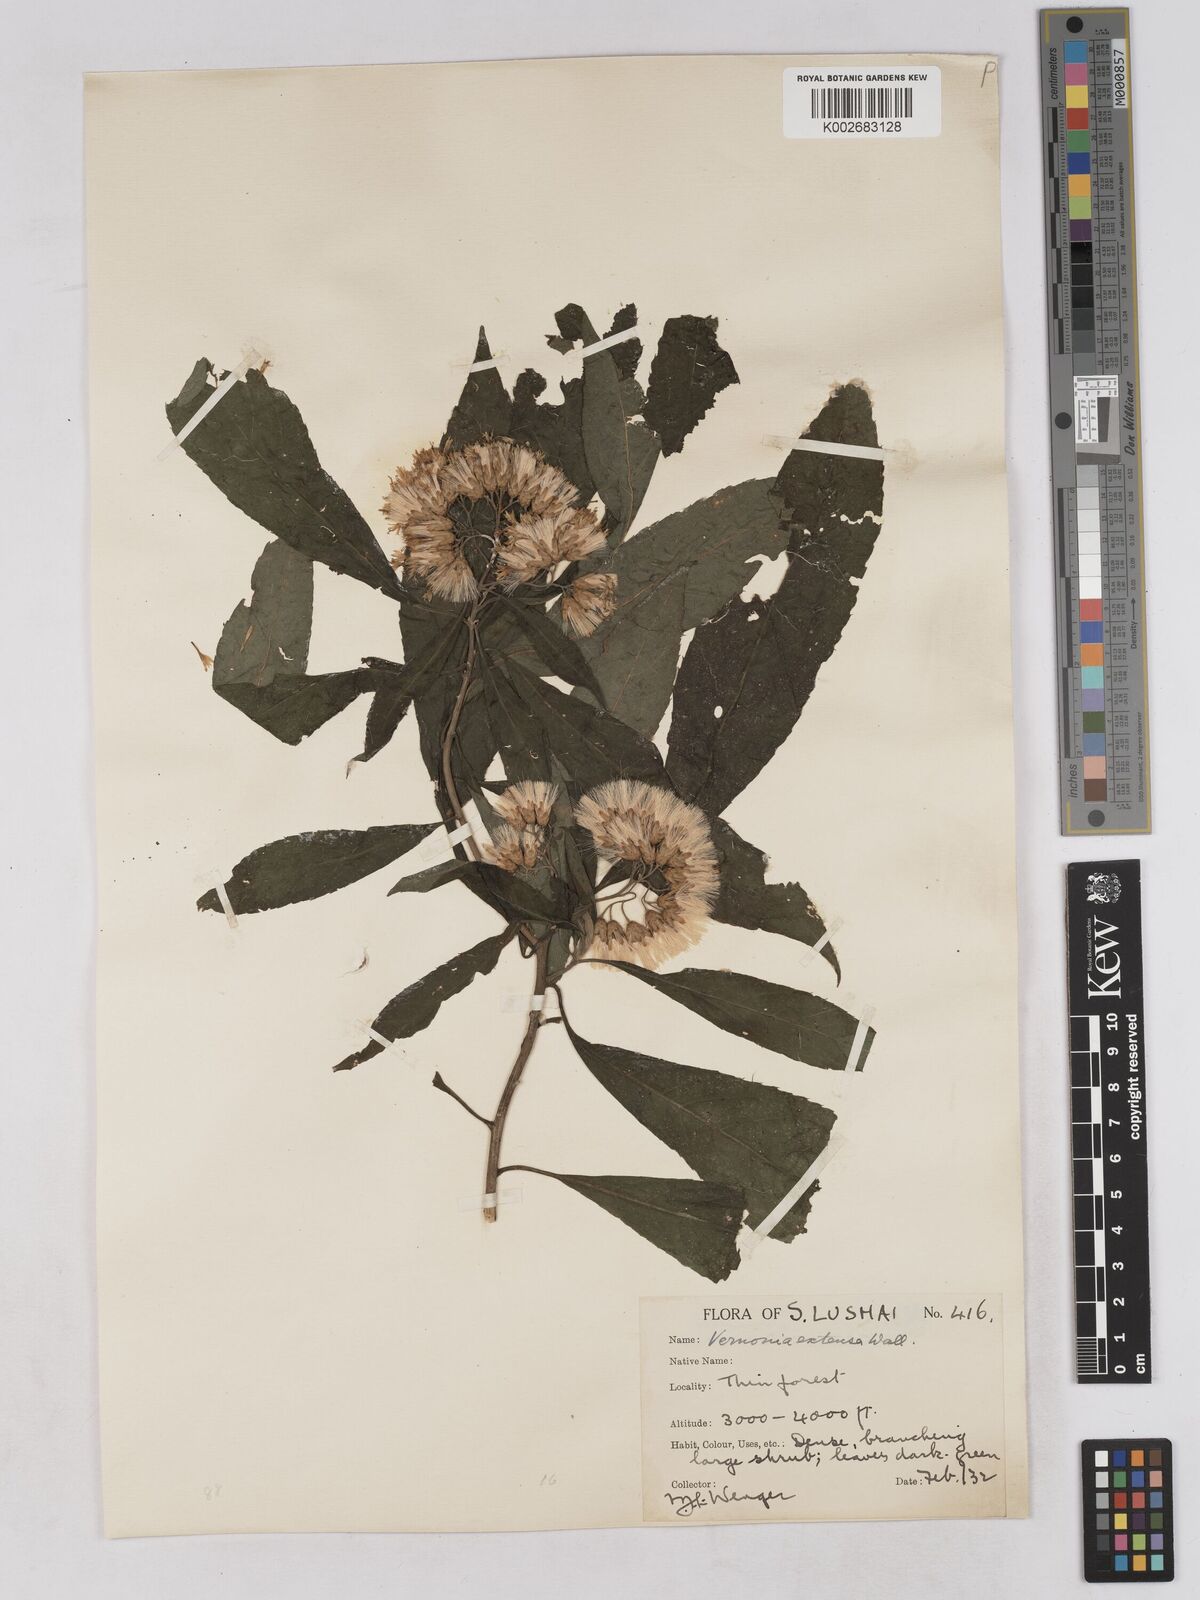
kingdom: Plantae
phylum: Tracheophyta
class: Magnoliopsida
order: Asterales
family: Asteraceae
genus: Gymnanthemum
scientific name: Gymnanthemum extensum
